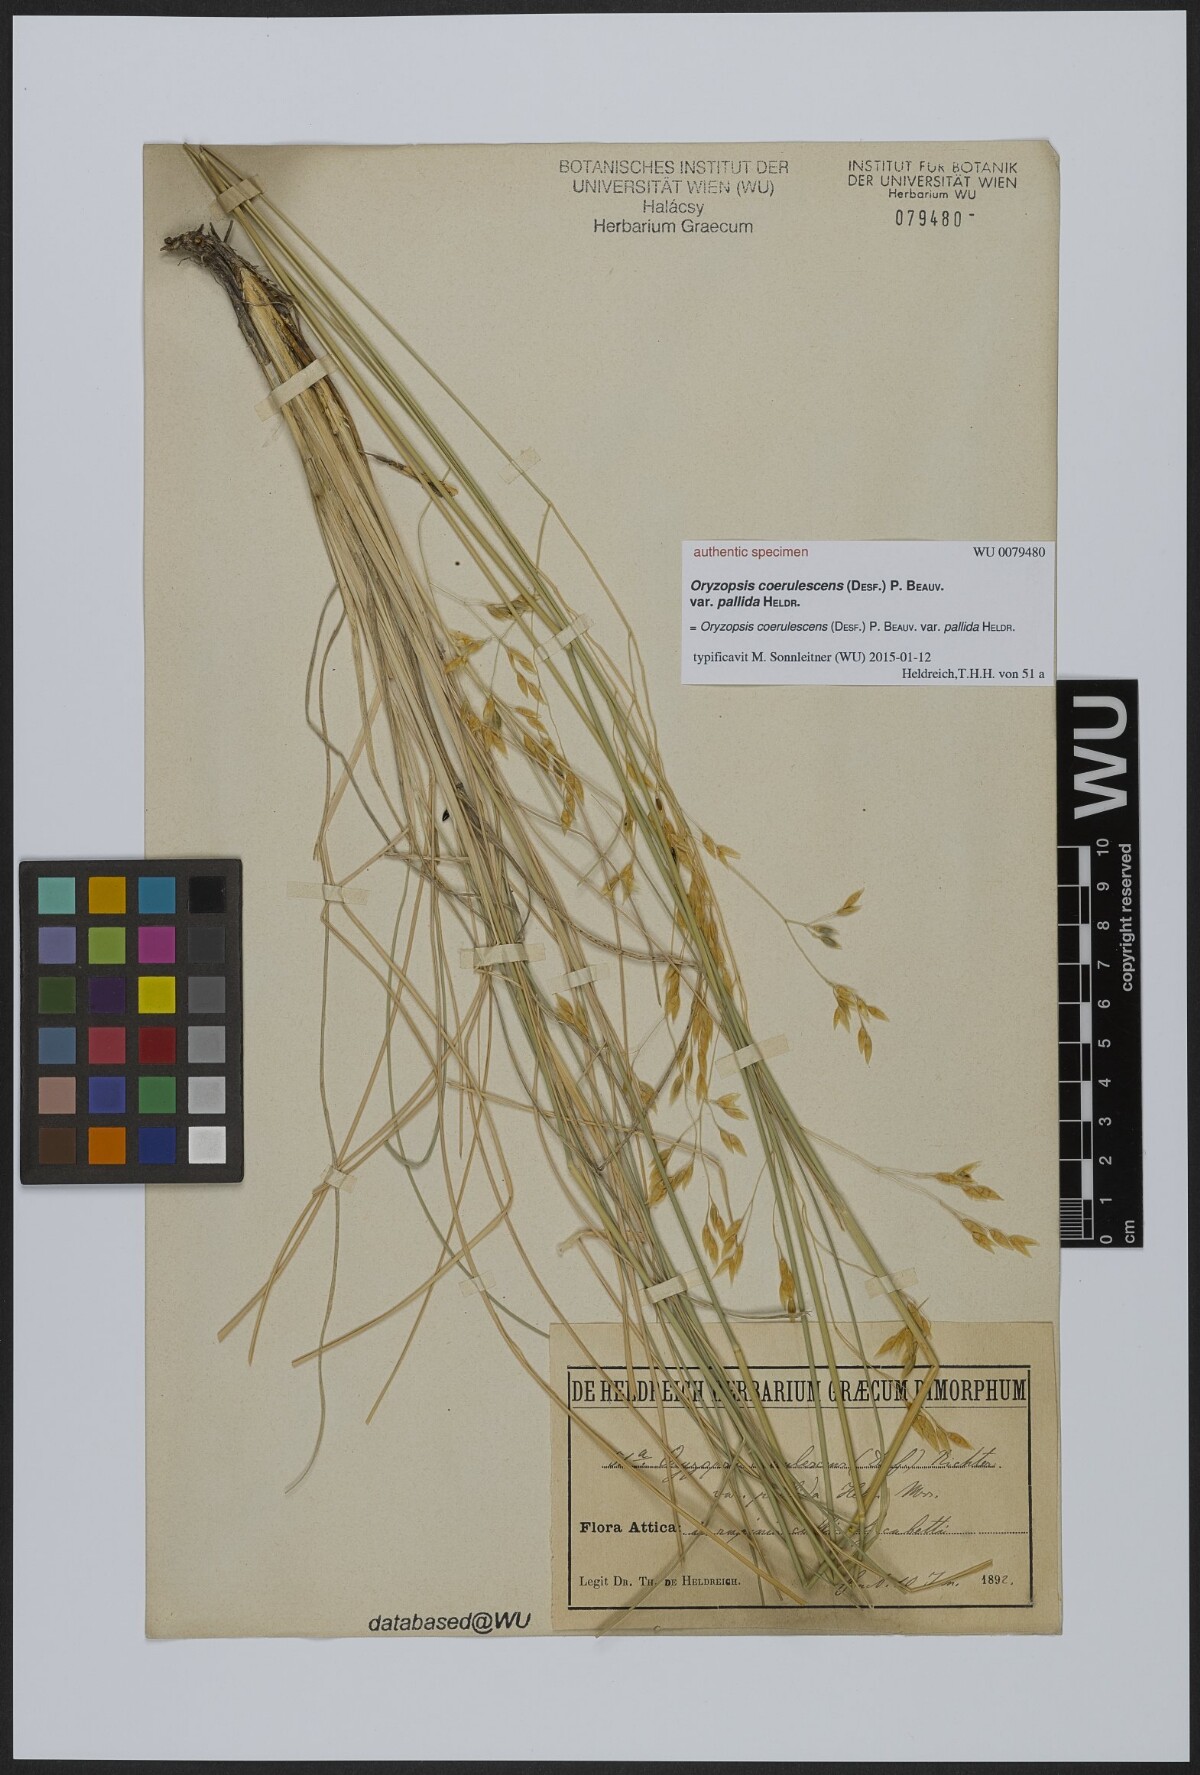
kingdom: Plantae
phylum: Tracheophyta
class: Liliopsida
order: Poales
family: Poaceae
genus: Oryzopsis
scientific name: Oryzopsis coerulescens
